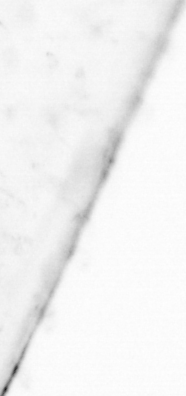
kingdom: Animalia
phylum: Chaetognatha
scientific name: Chaetognatha
